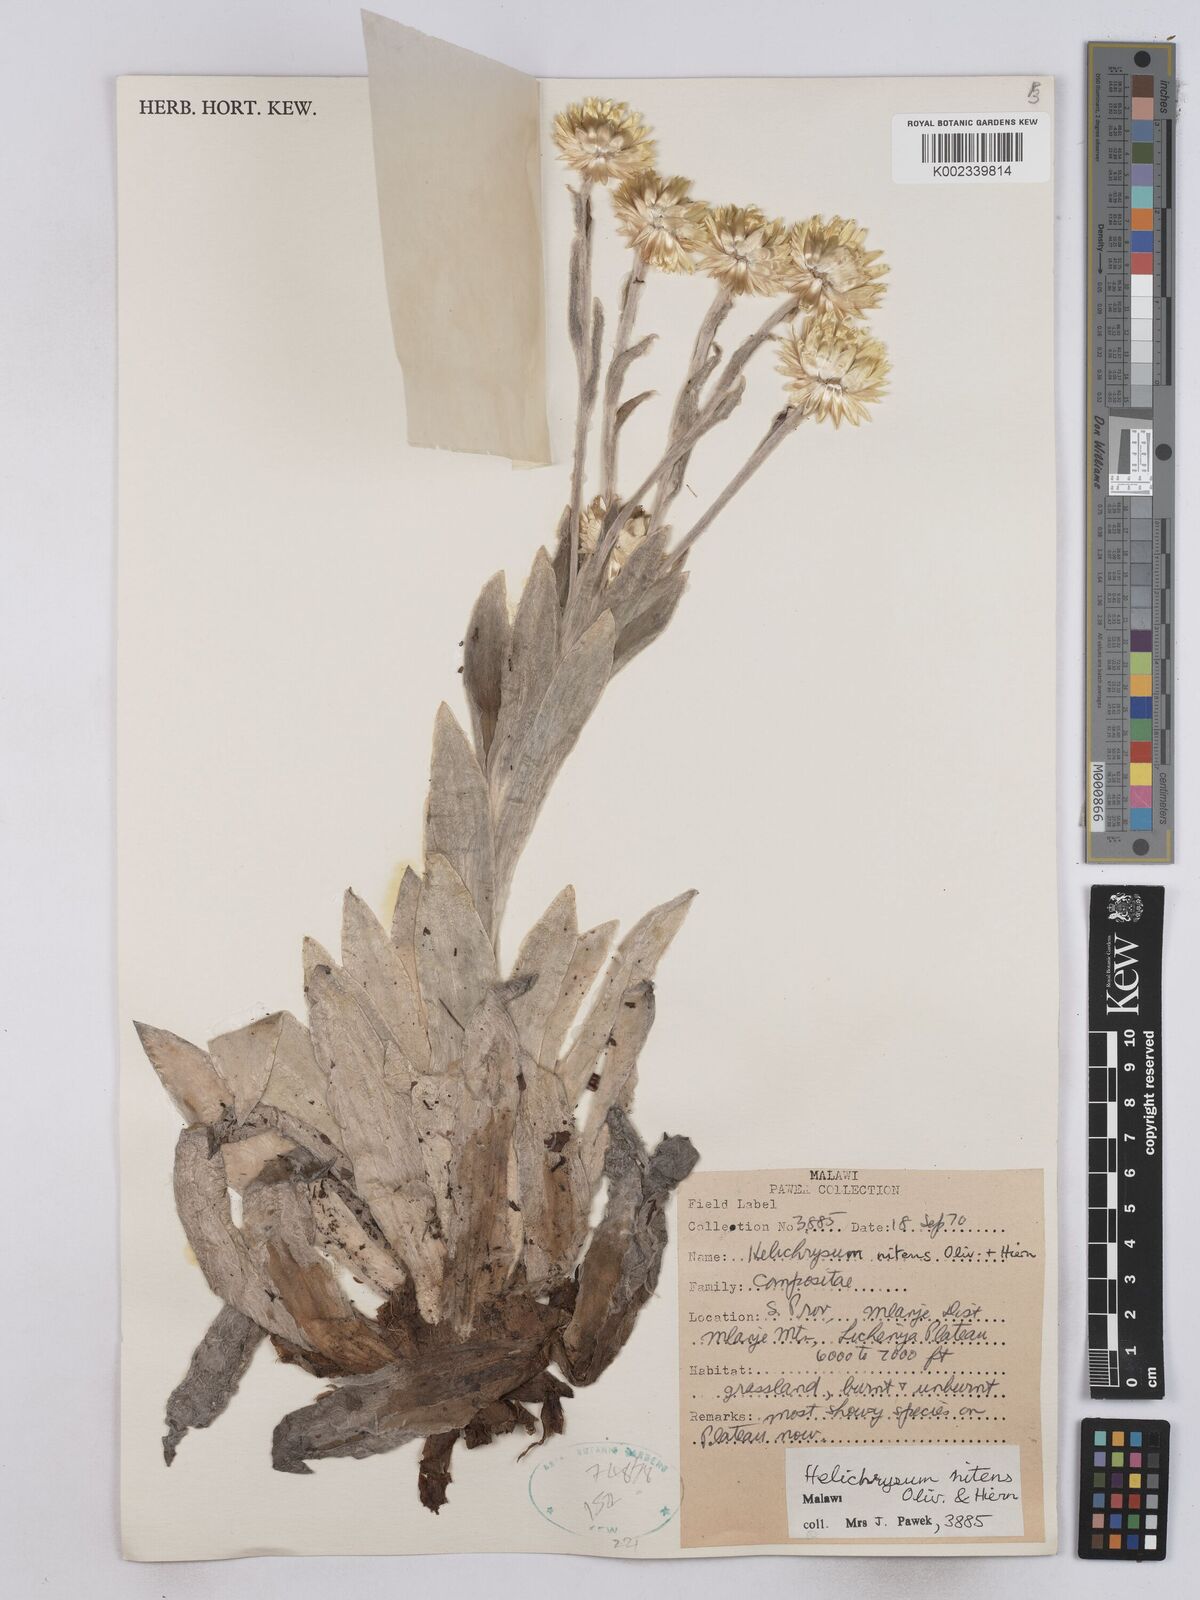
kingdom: Plantae
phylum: Tracheophyta
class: Magnoliopsida
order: Asterales
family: Asteraceae
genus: Helichrysum
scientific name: Helichrysum nitens
